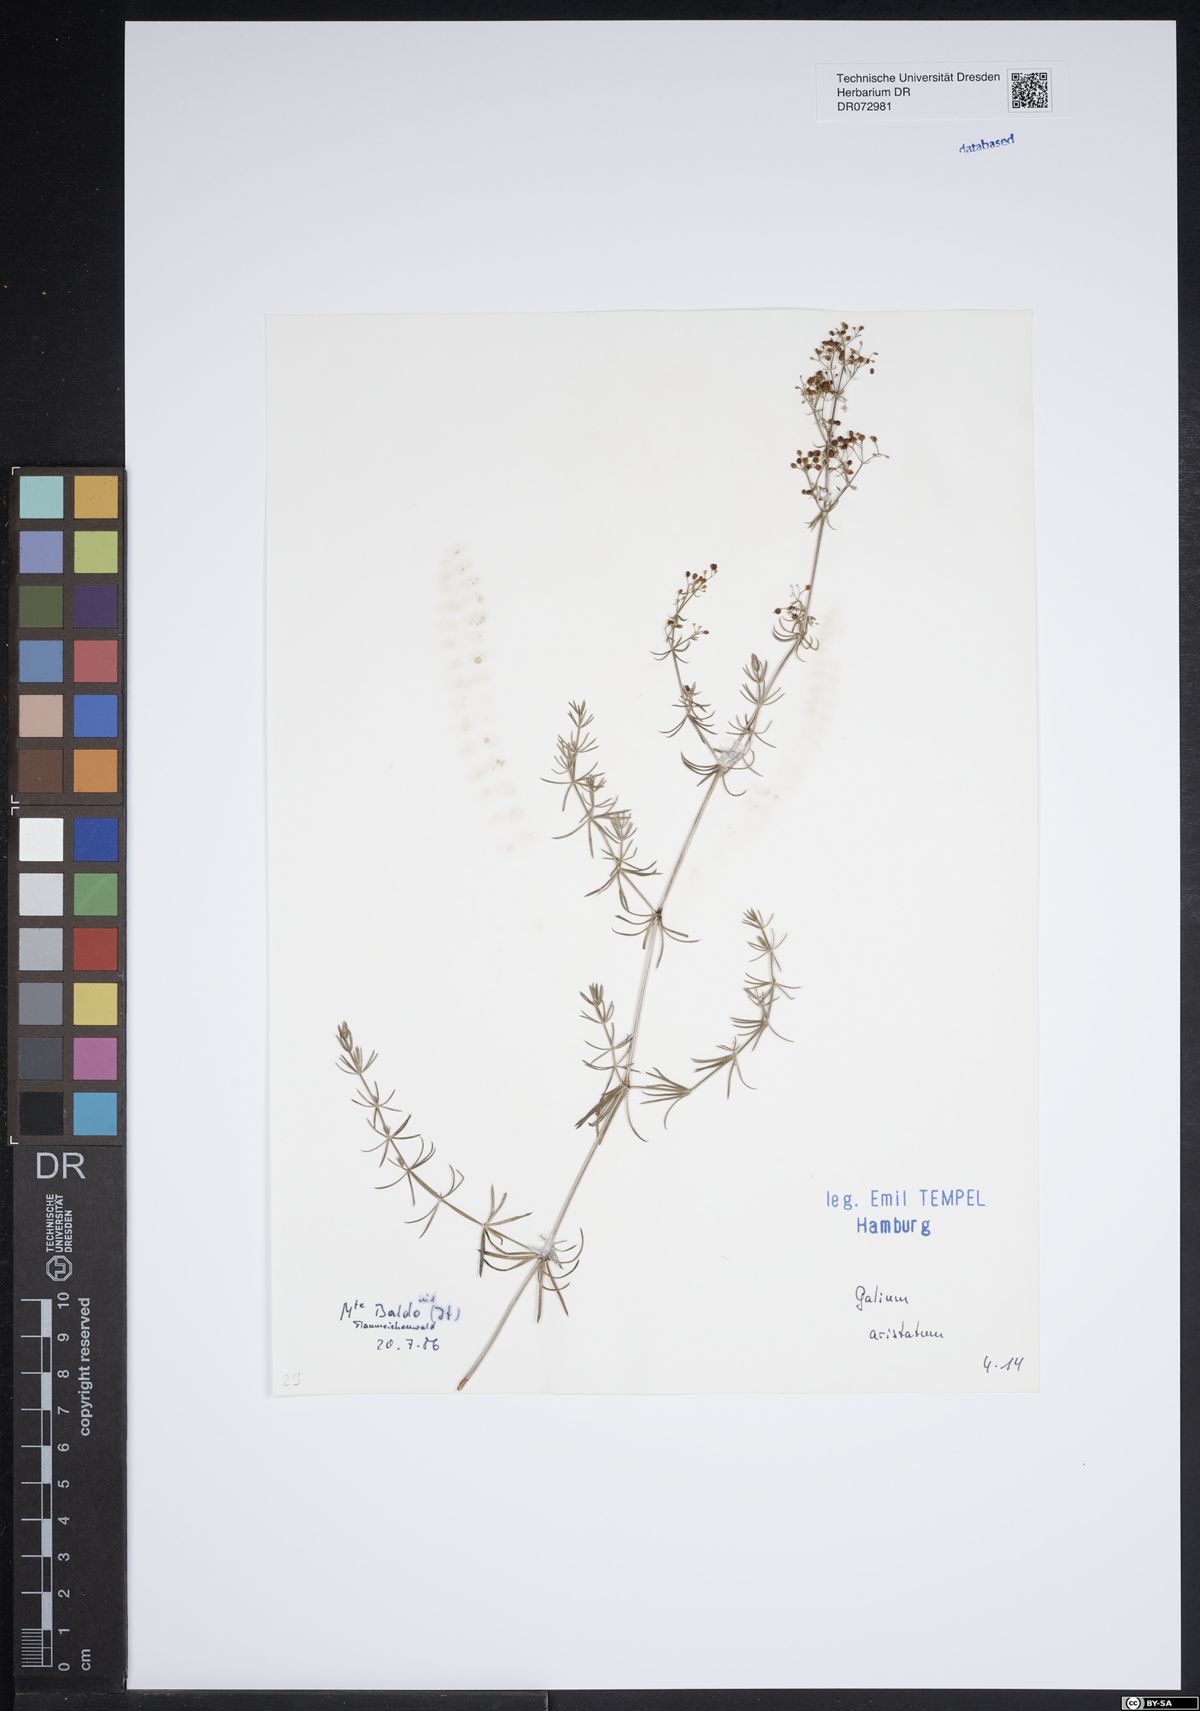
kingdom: Plantae
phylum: Tracheophyta
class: Magnoliopsida
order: Gentianales
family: Rubiaceae
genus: Galium
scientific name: Galium aristatum
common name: Awned bedstraw
